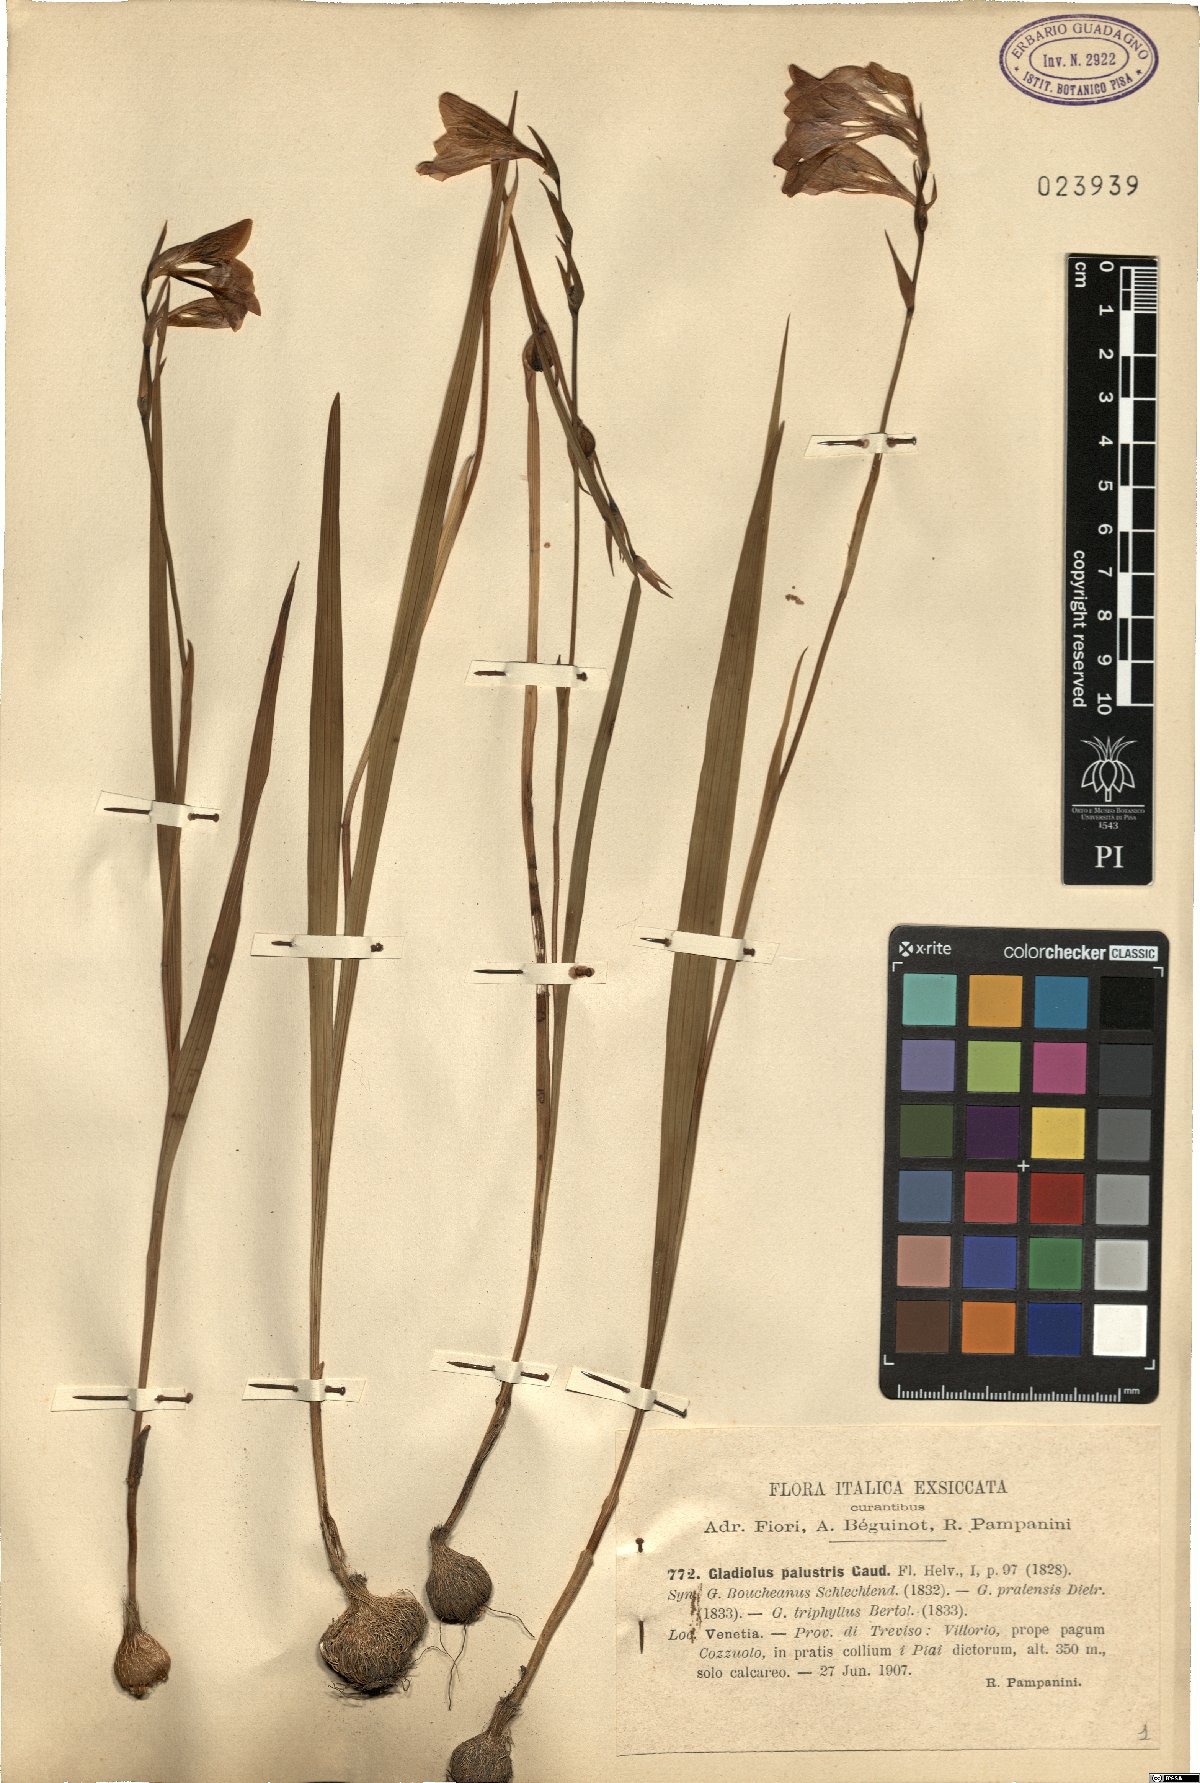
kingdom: Plantae
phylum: Tracheophyta
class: Liliopsida
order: Asparagales
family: Iridaceae
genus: Gladiolus
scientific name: Gladiolus palustris
